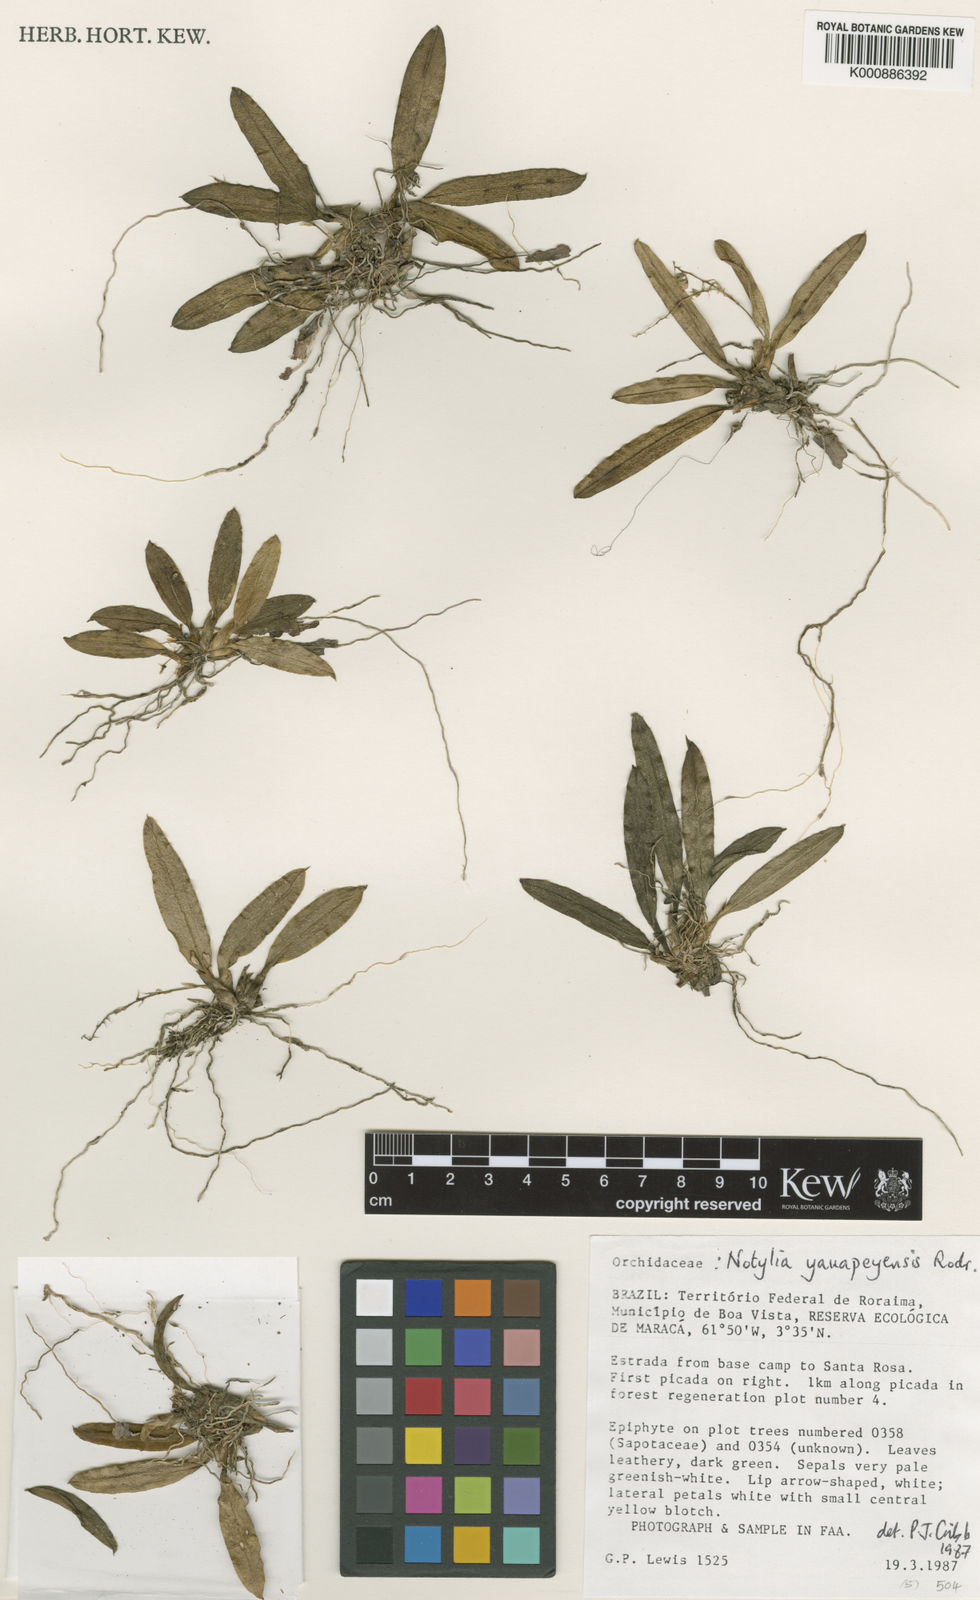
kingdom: Plantae
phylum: Tracheophyta
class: Liliopsida
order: Asparagales
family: Orchidaceae
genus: Notylia
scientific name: Notylia yauaperyensis
